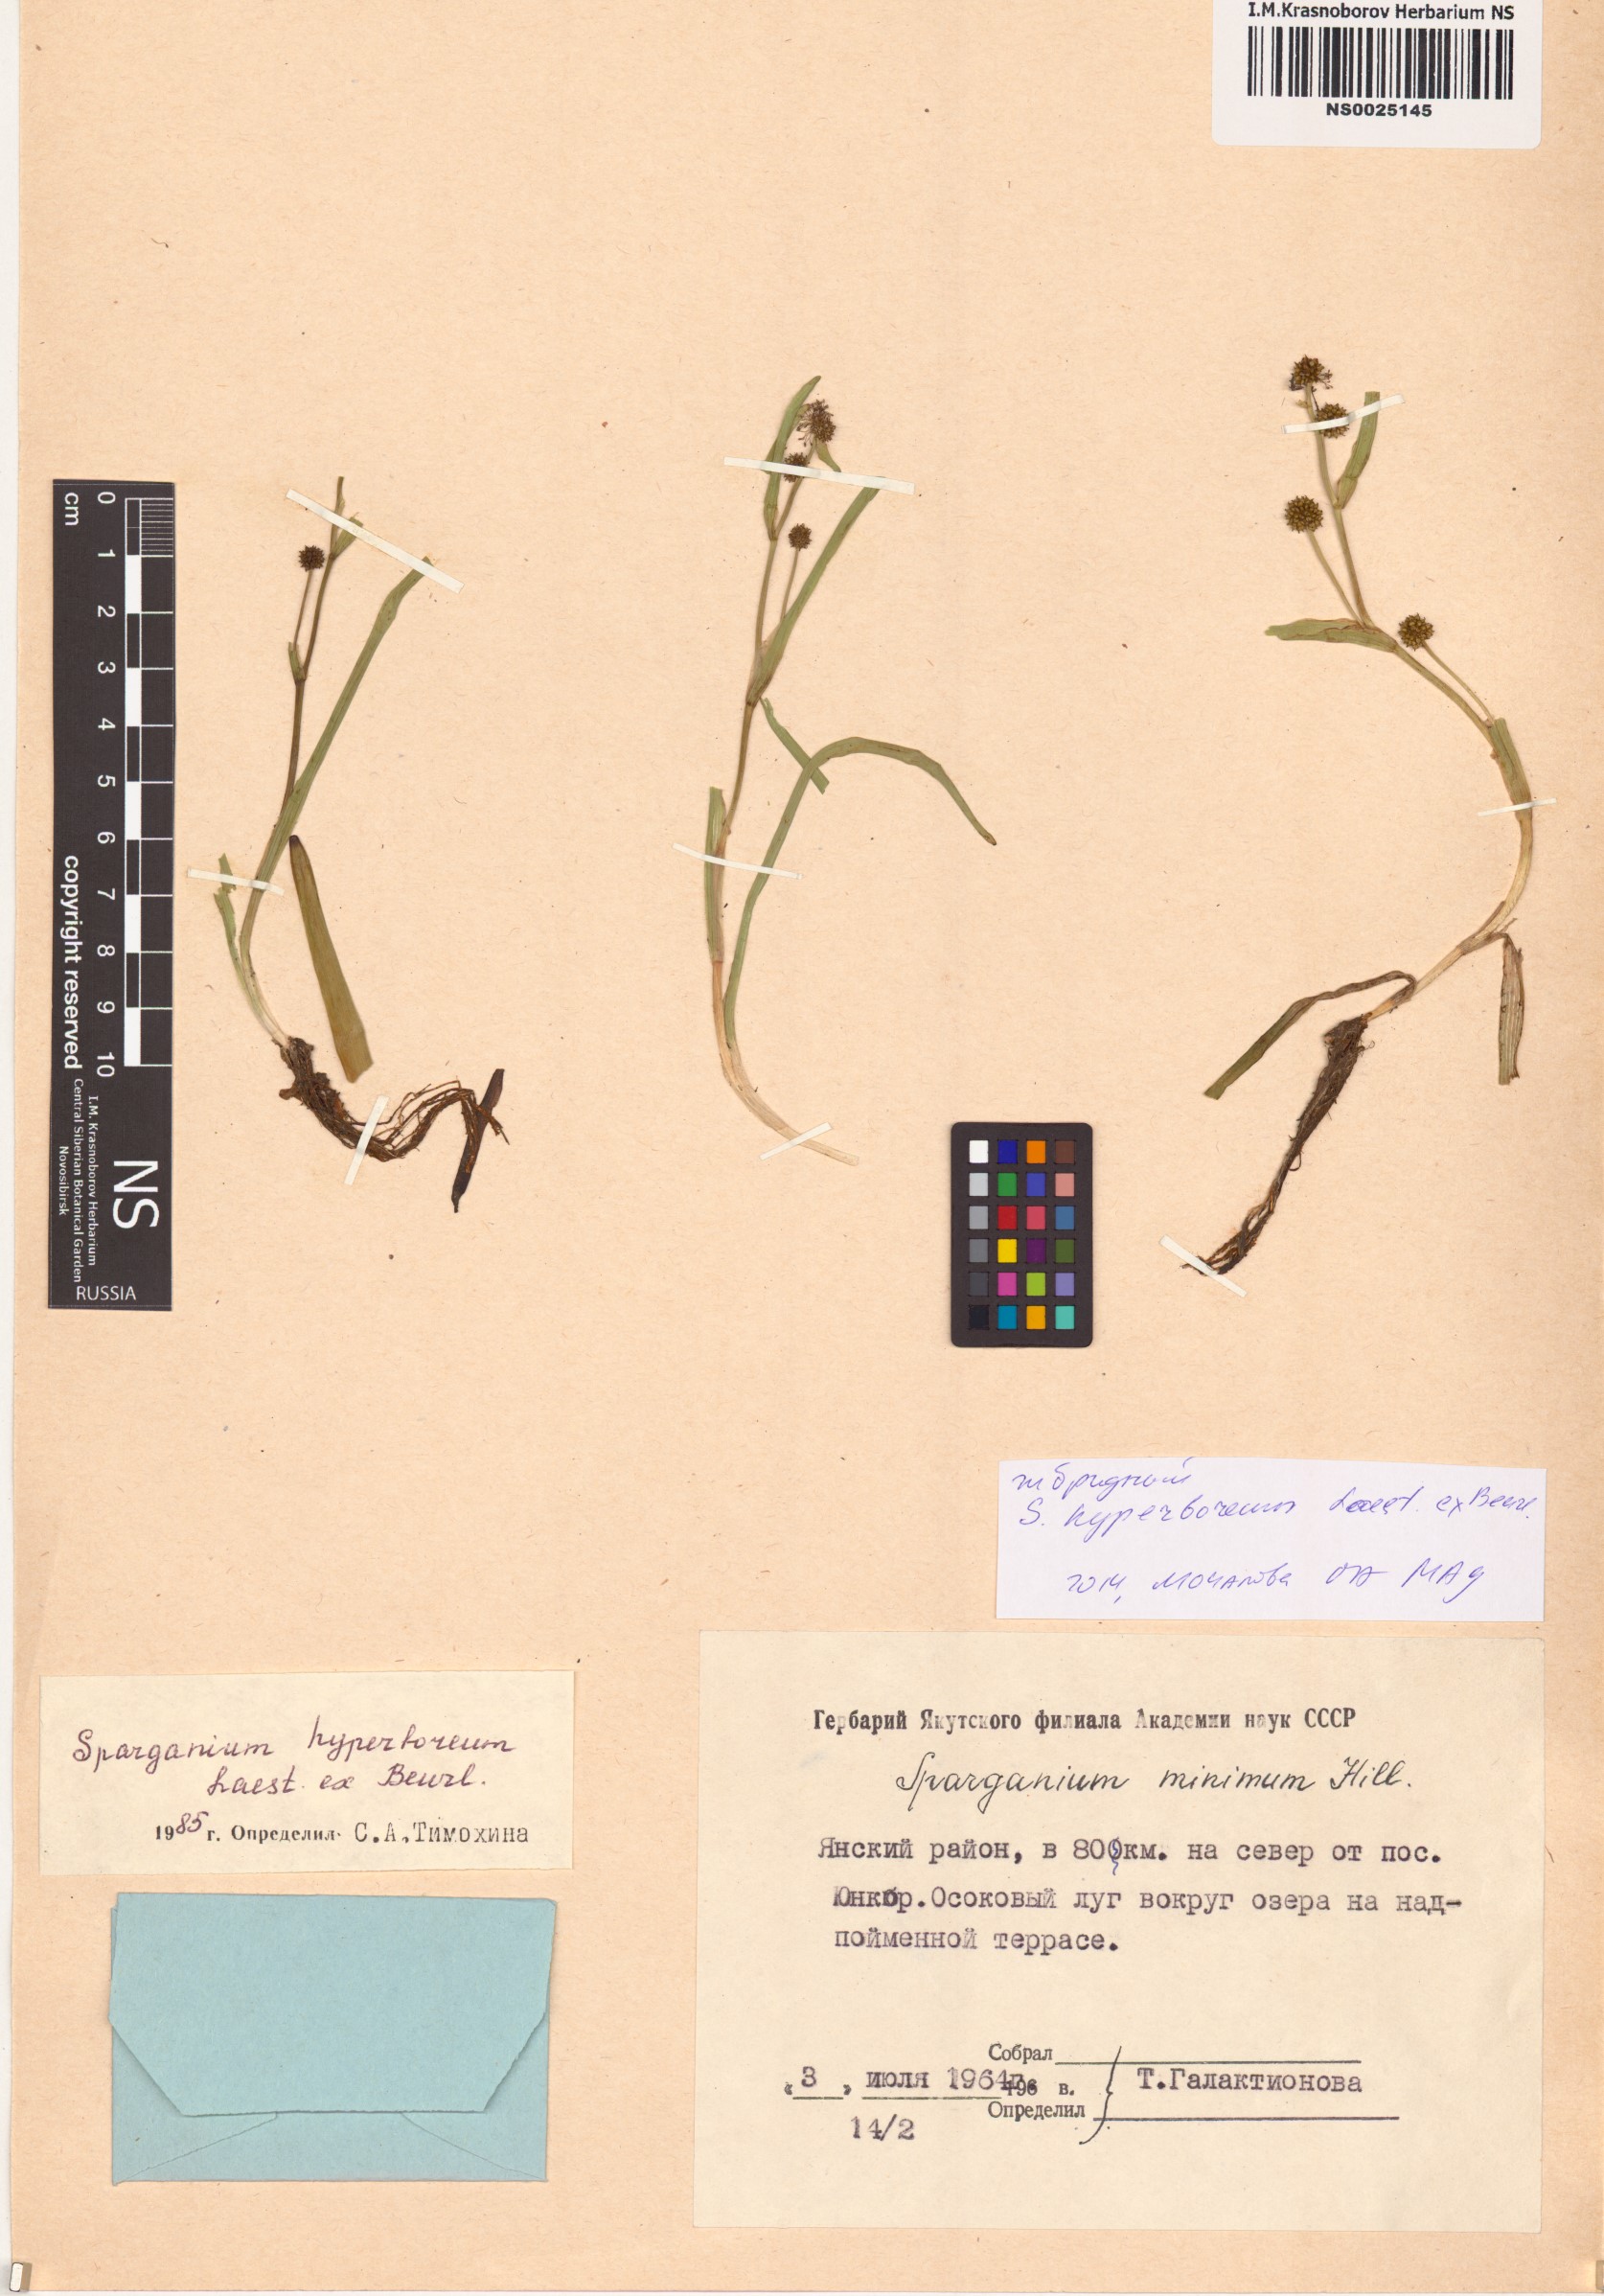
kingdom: Plantae
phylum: Tracheophyta
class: Liliopsida
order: Poales
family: Typhaceae
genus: Sparganium
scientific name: Sparganium hyperboreum
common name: Arctic burreed
